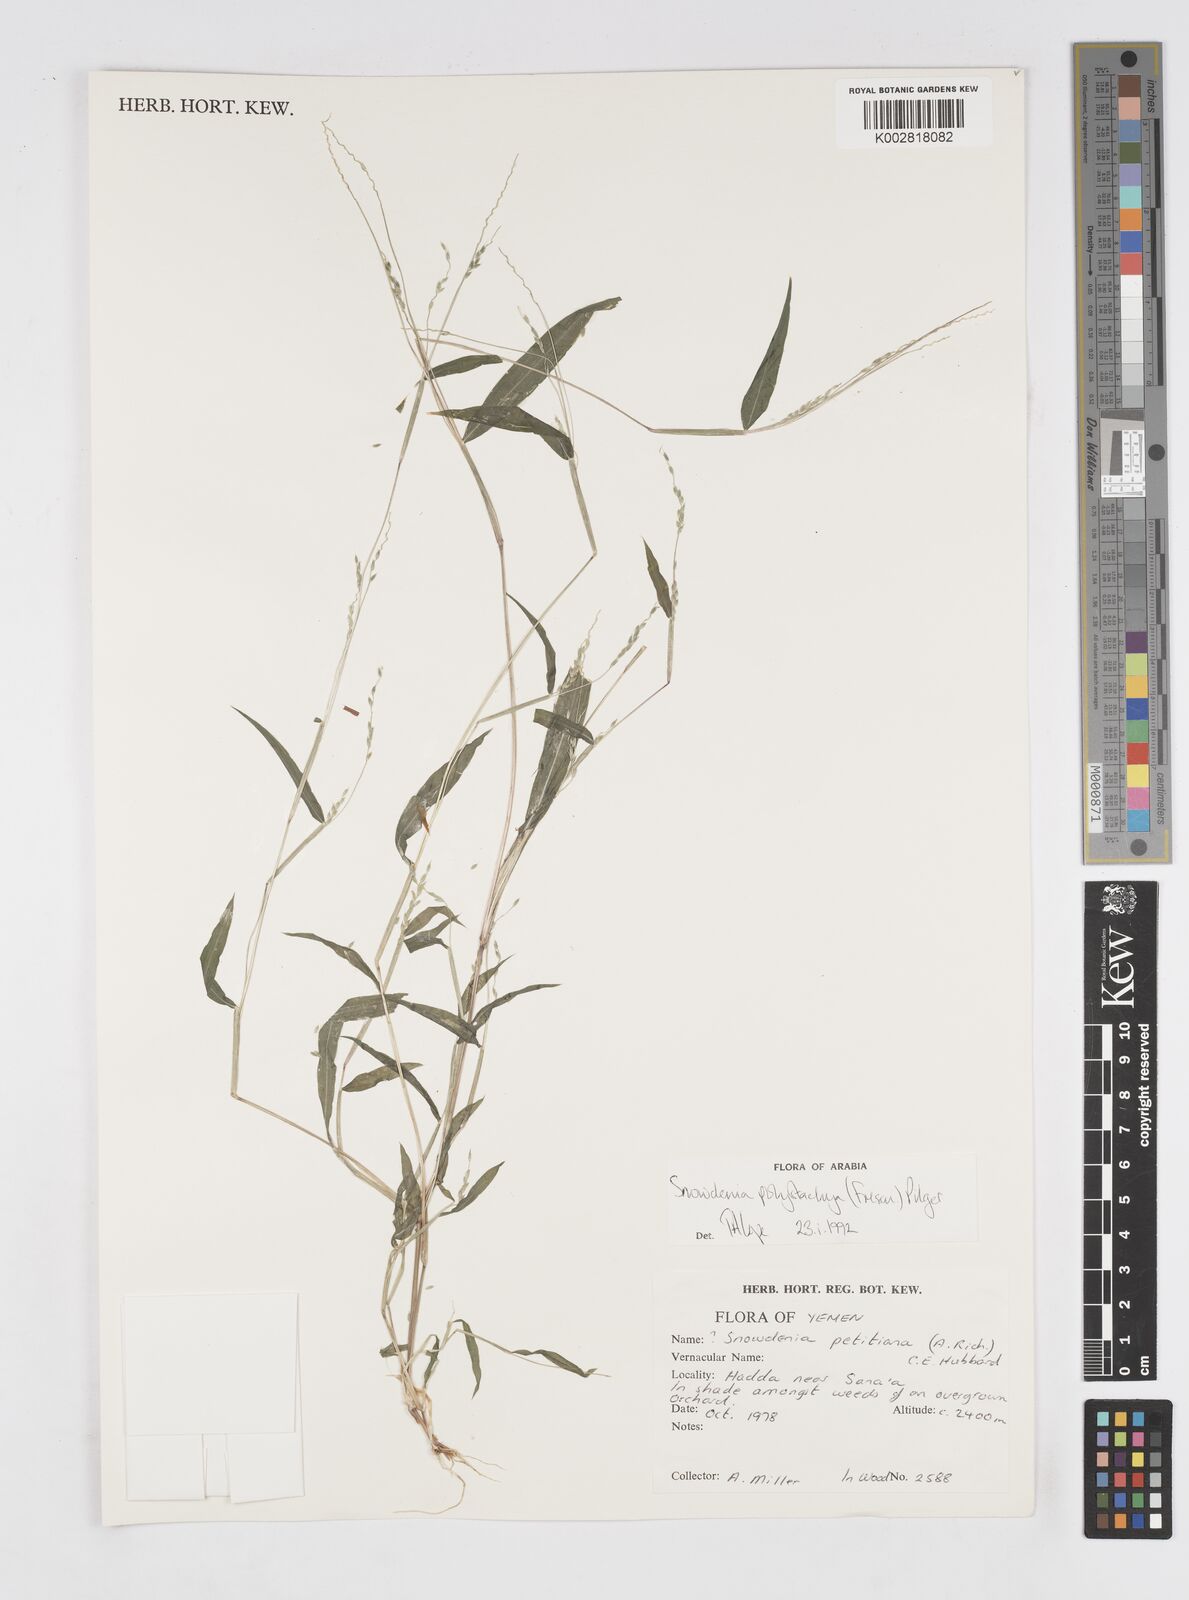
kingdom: Plantae
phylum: Tracheophyta
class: Liliopsida
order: Poales
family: Poaceae
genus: Snowdenia
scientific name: Snowdenia polystachya
